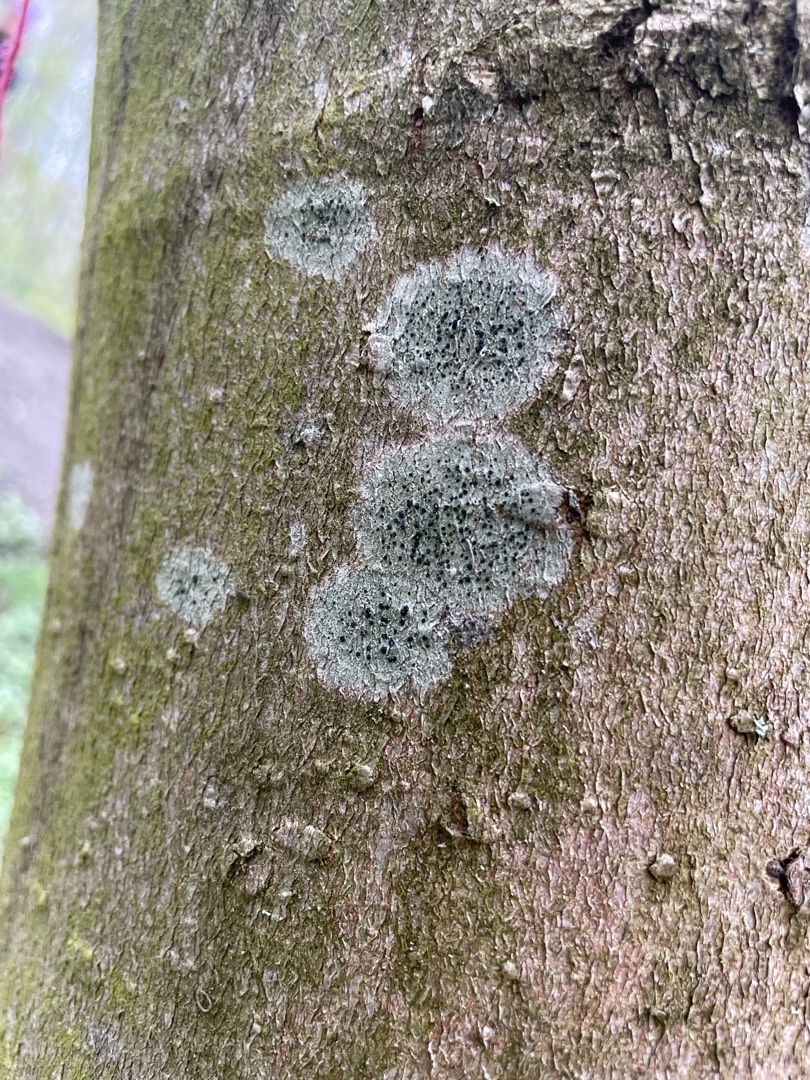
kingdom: Fungi
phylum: Ascomycota
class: Lecanoromycetes
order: Lecanorales
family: Lecanoraceae
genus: Lecidella
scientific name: Lecidella elaeochroma
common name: Grågrøn skivelav
